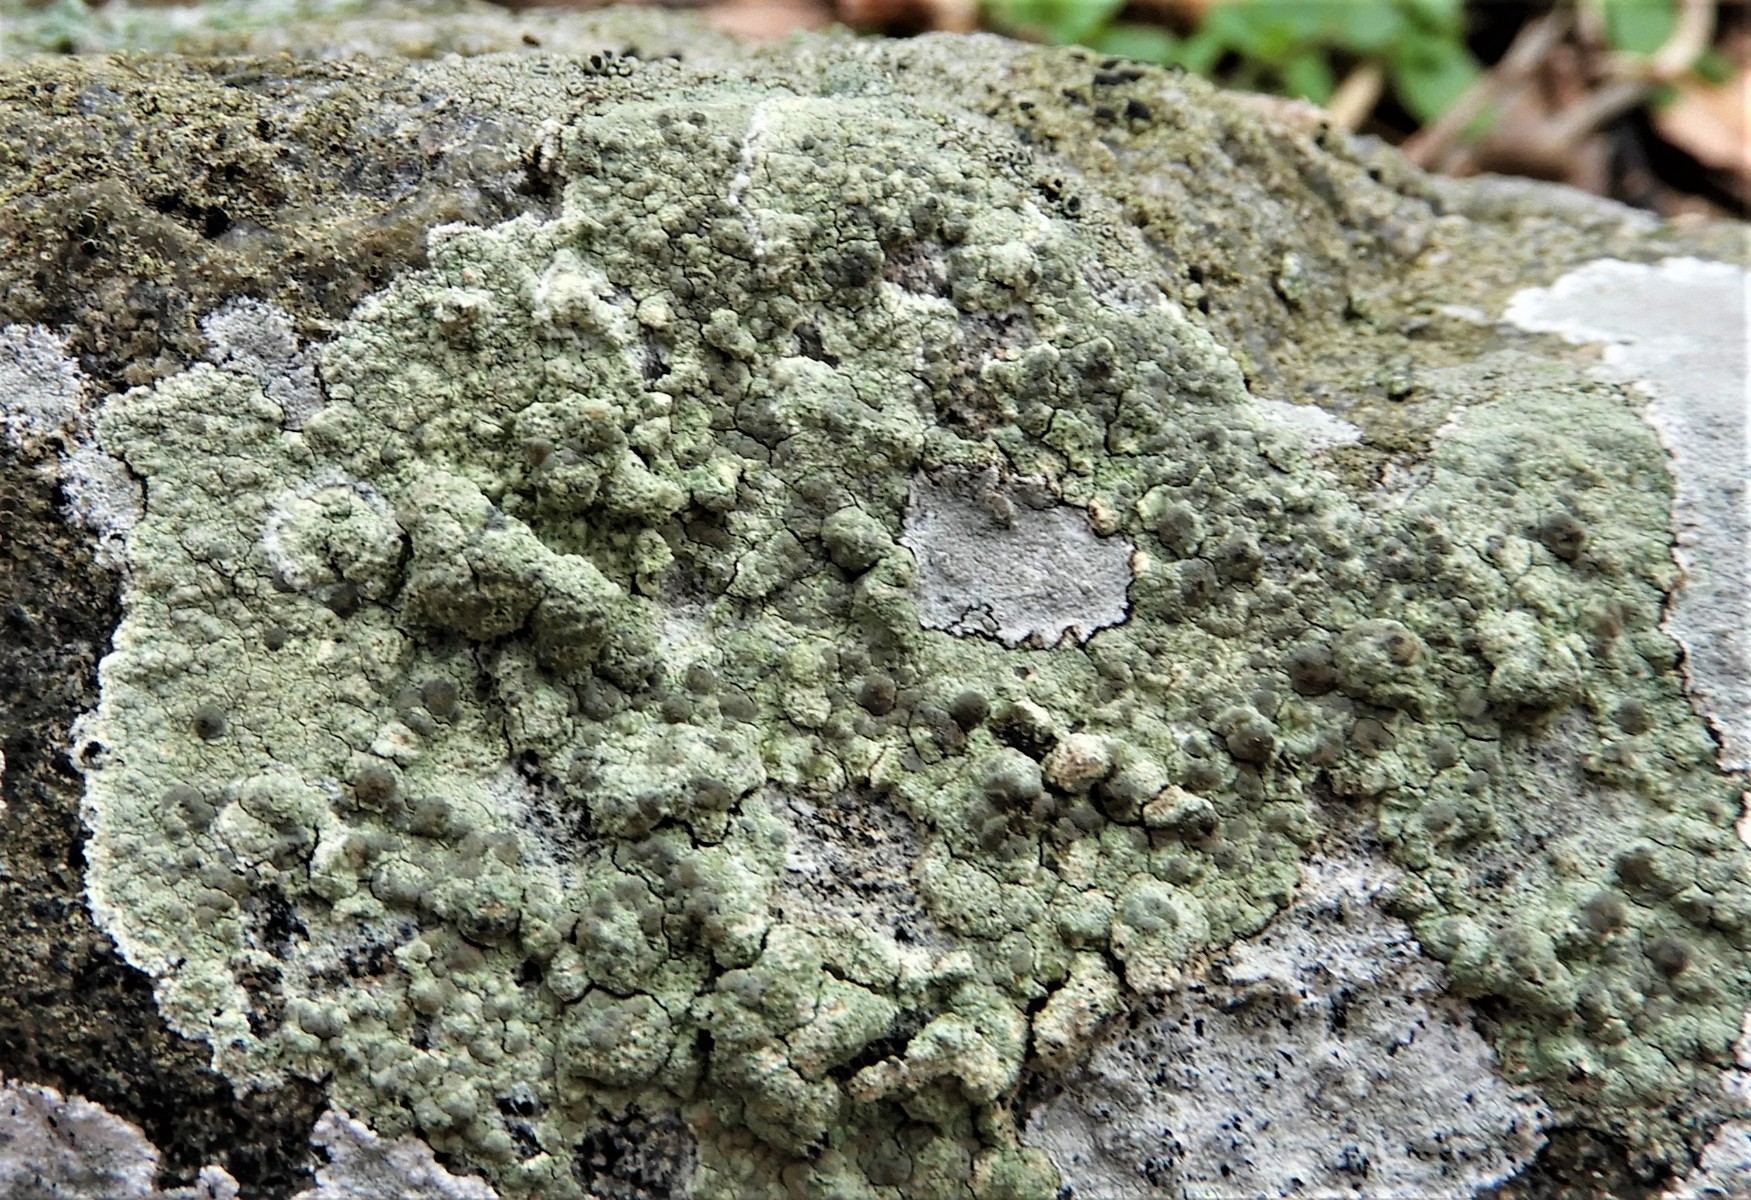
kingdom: Fungi
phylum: Ascomycota
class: Lecanoromycetes
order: Lecanorales
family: Lecanoraceae
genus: Glaucomaria
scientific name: Glaucomaria sulphurea
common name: svovlgul kantskivelav
